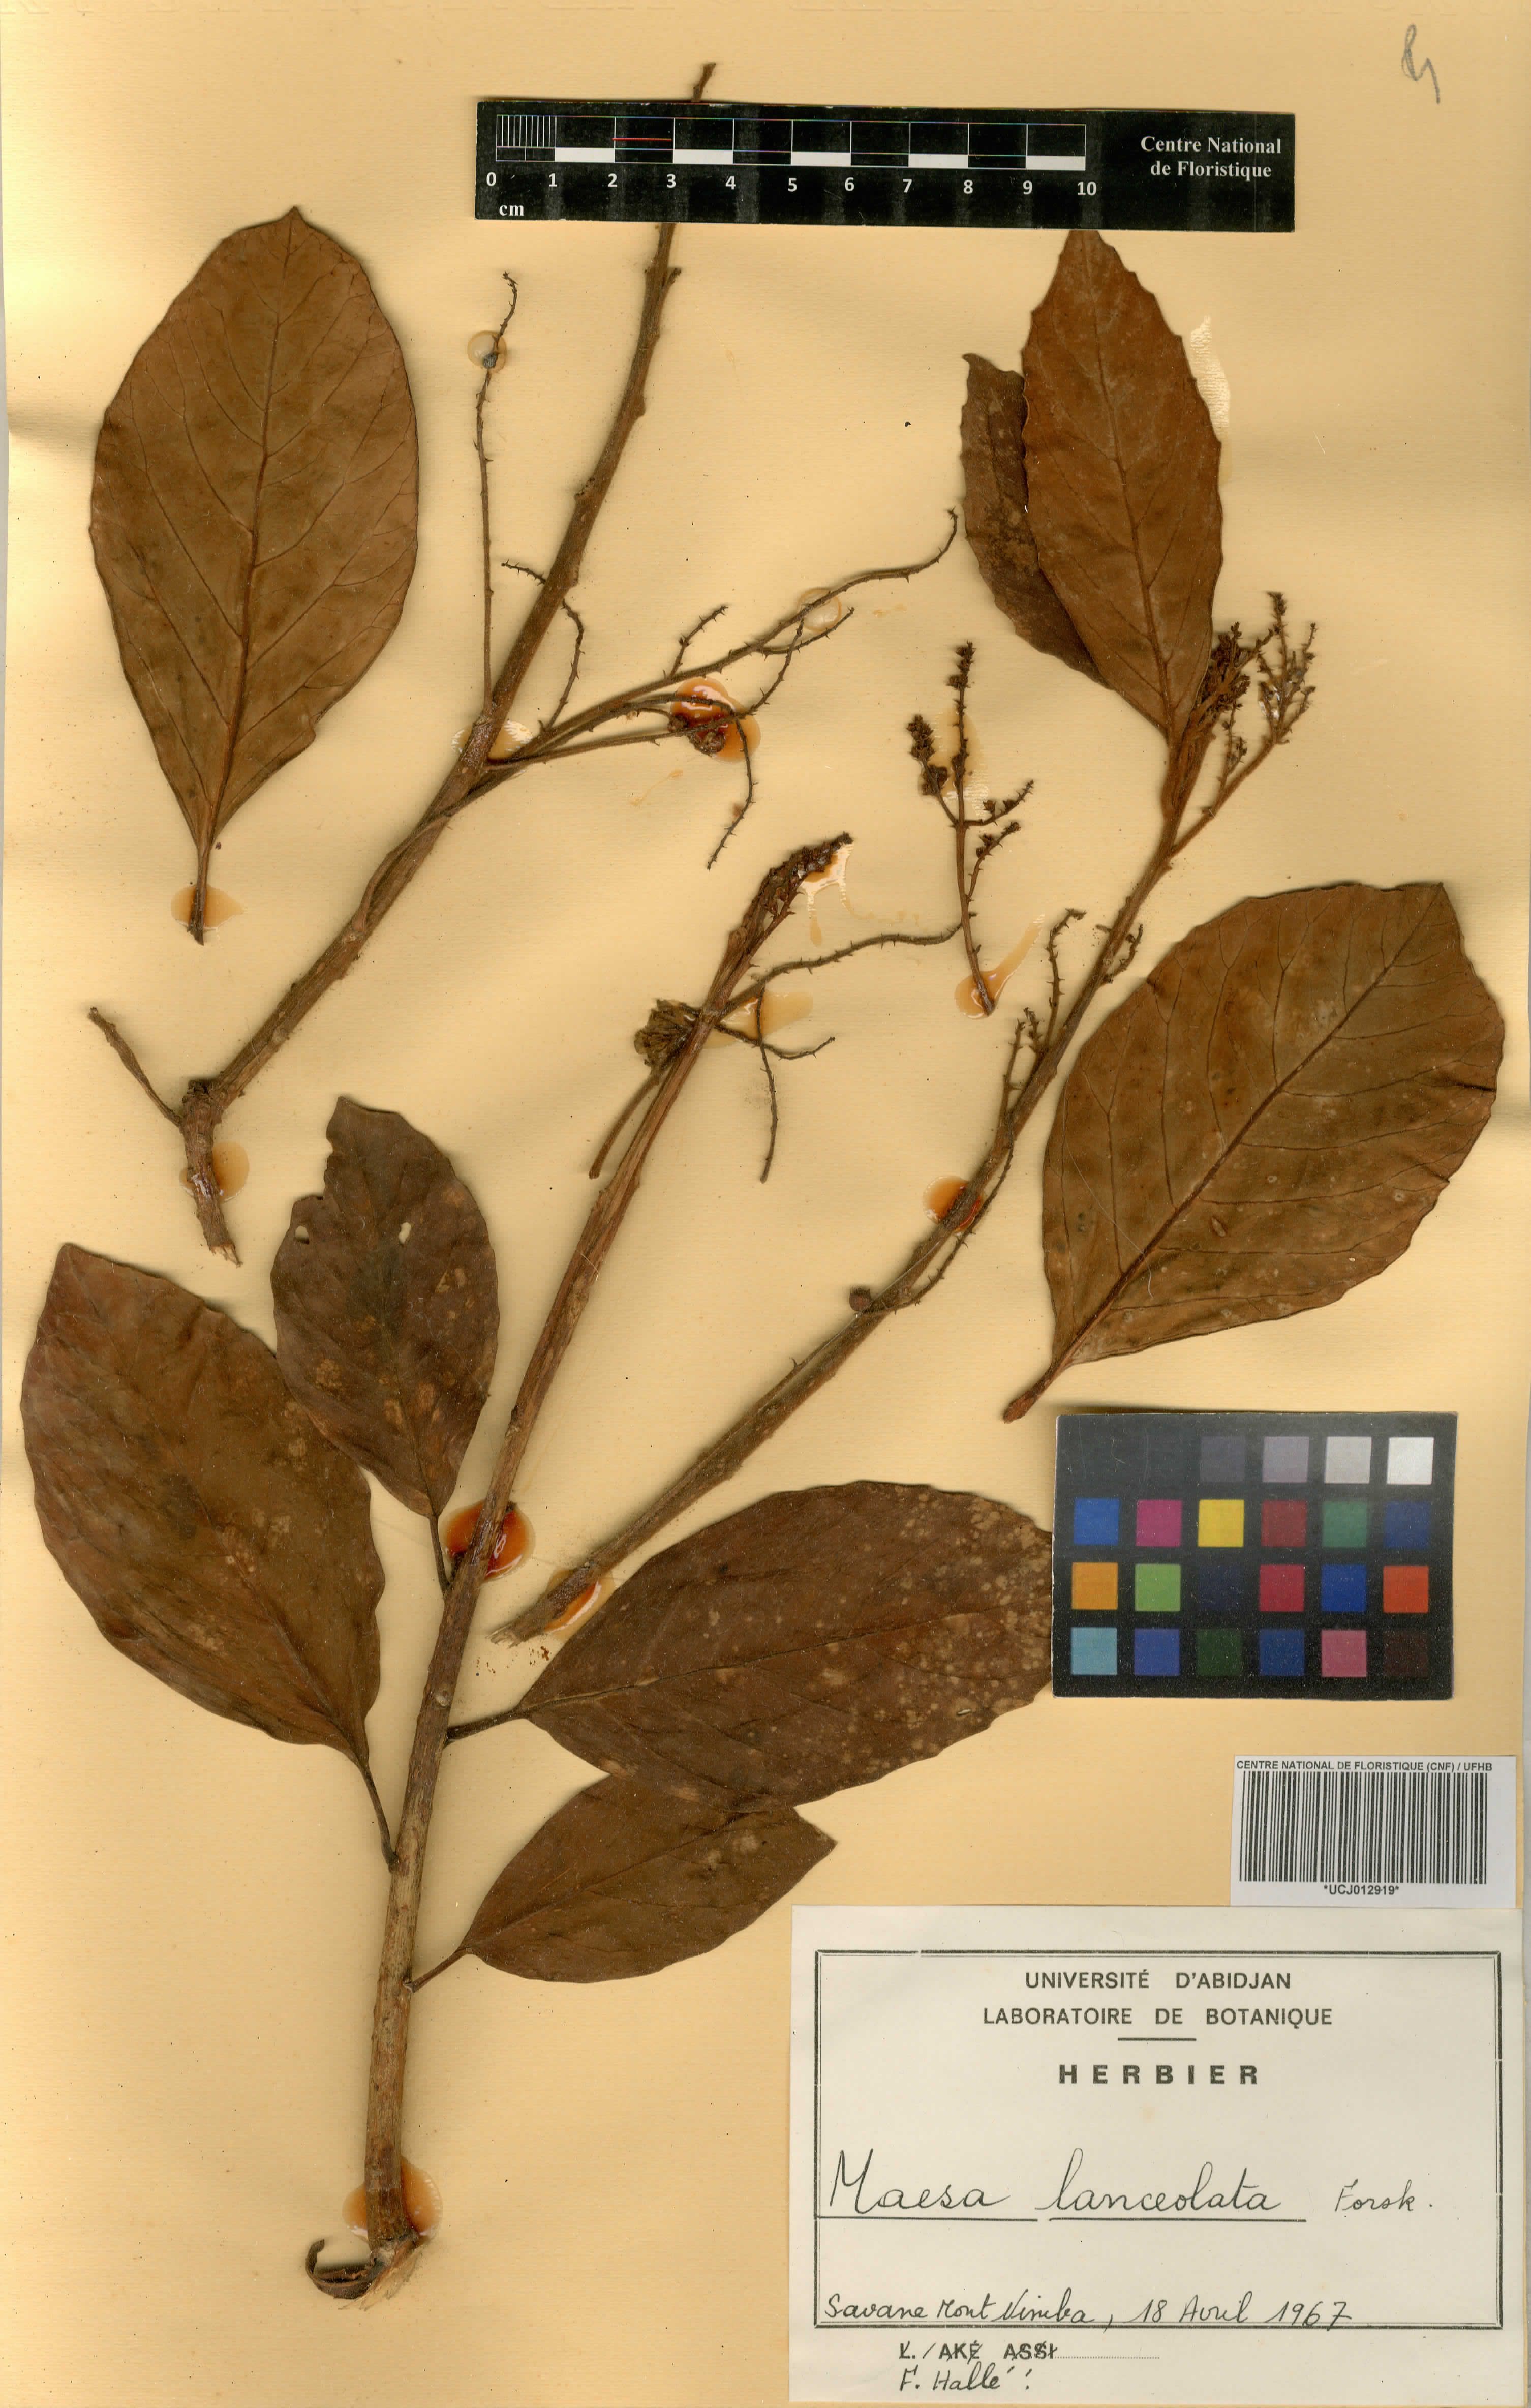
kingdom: Plantae
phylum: Tracheophyta
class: Magnoliopsida
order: Ericales
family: Primulaceae
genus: Maesa
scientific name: Maesa lanceolata
